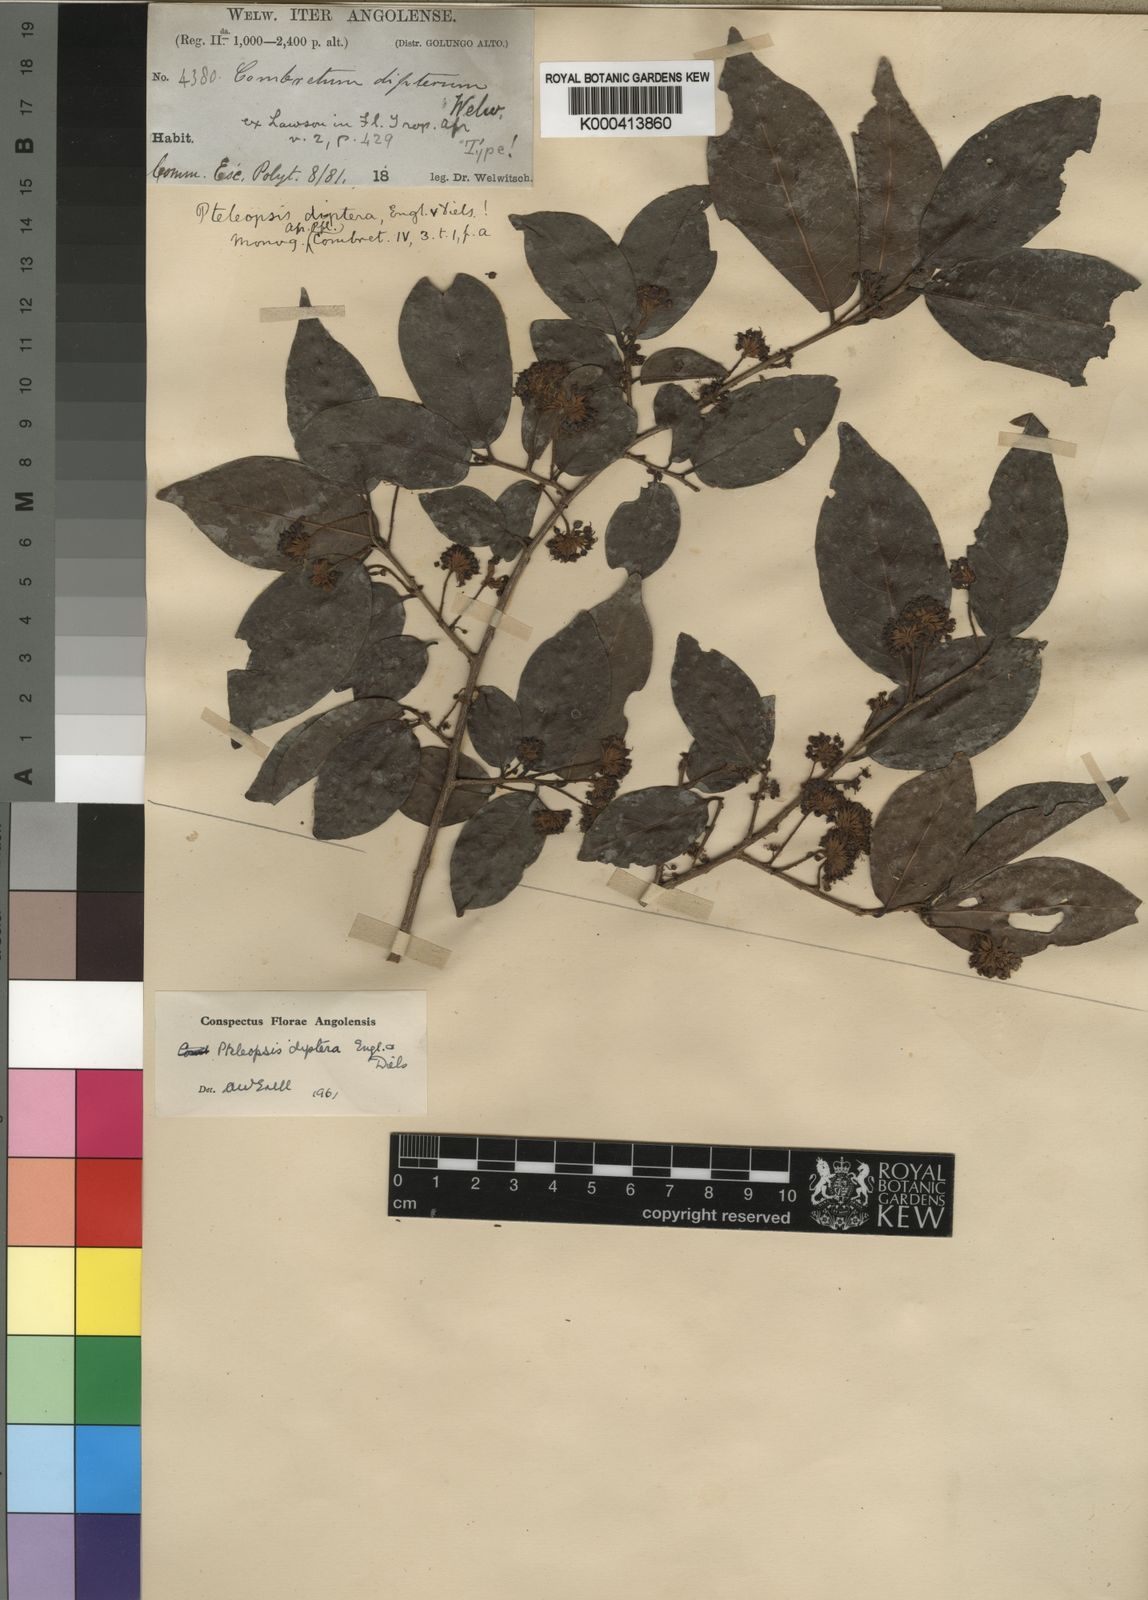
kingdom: Plantae
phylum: Tracheophyta
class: Magnoliopsida
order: Myrtales
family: Combretaceae
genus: Terminalia
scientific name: Terminalia welwitschii
